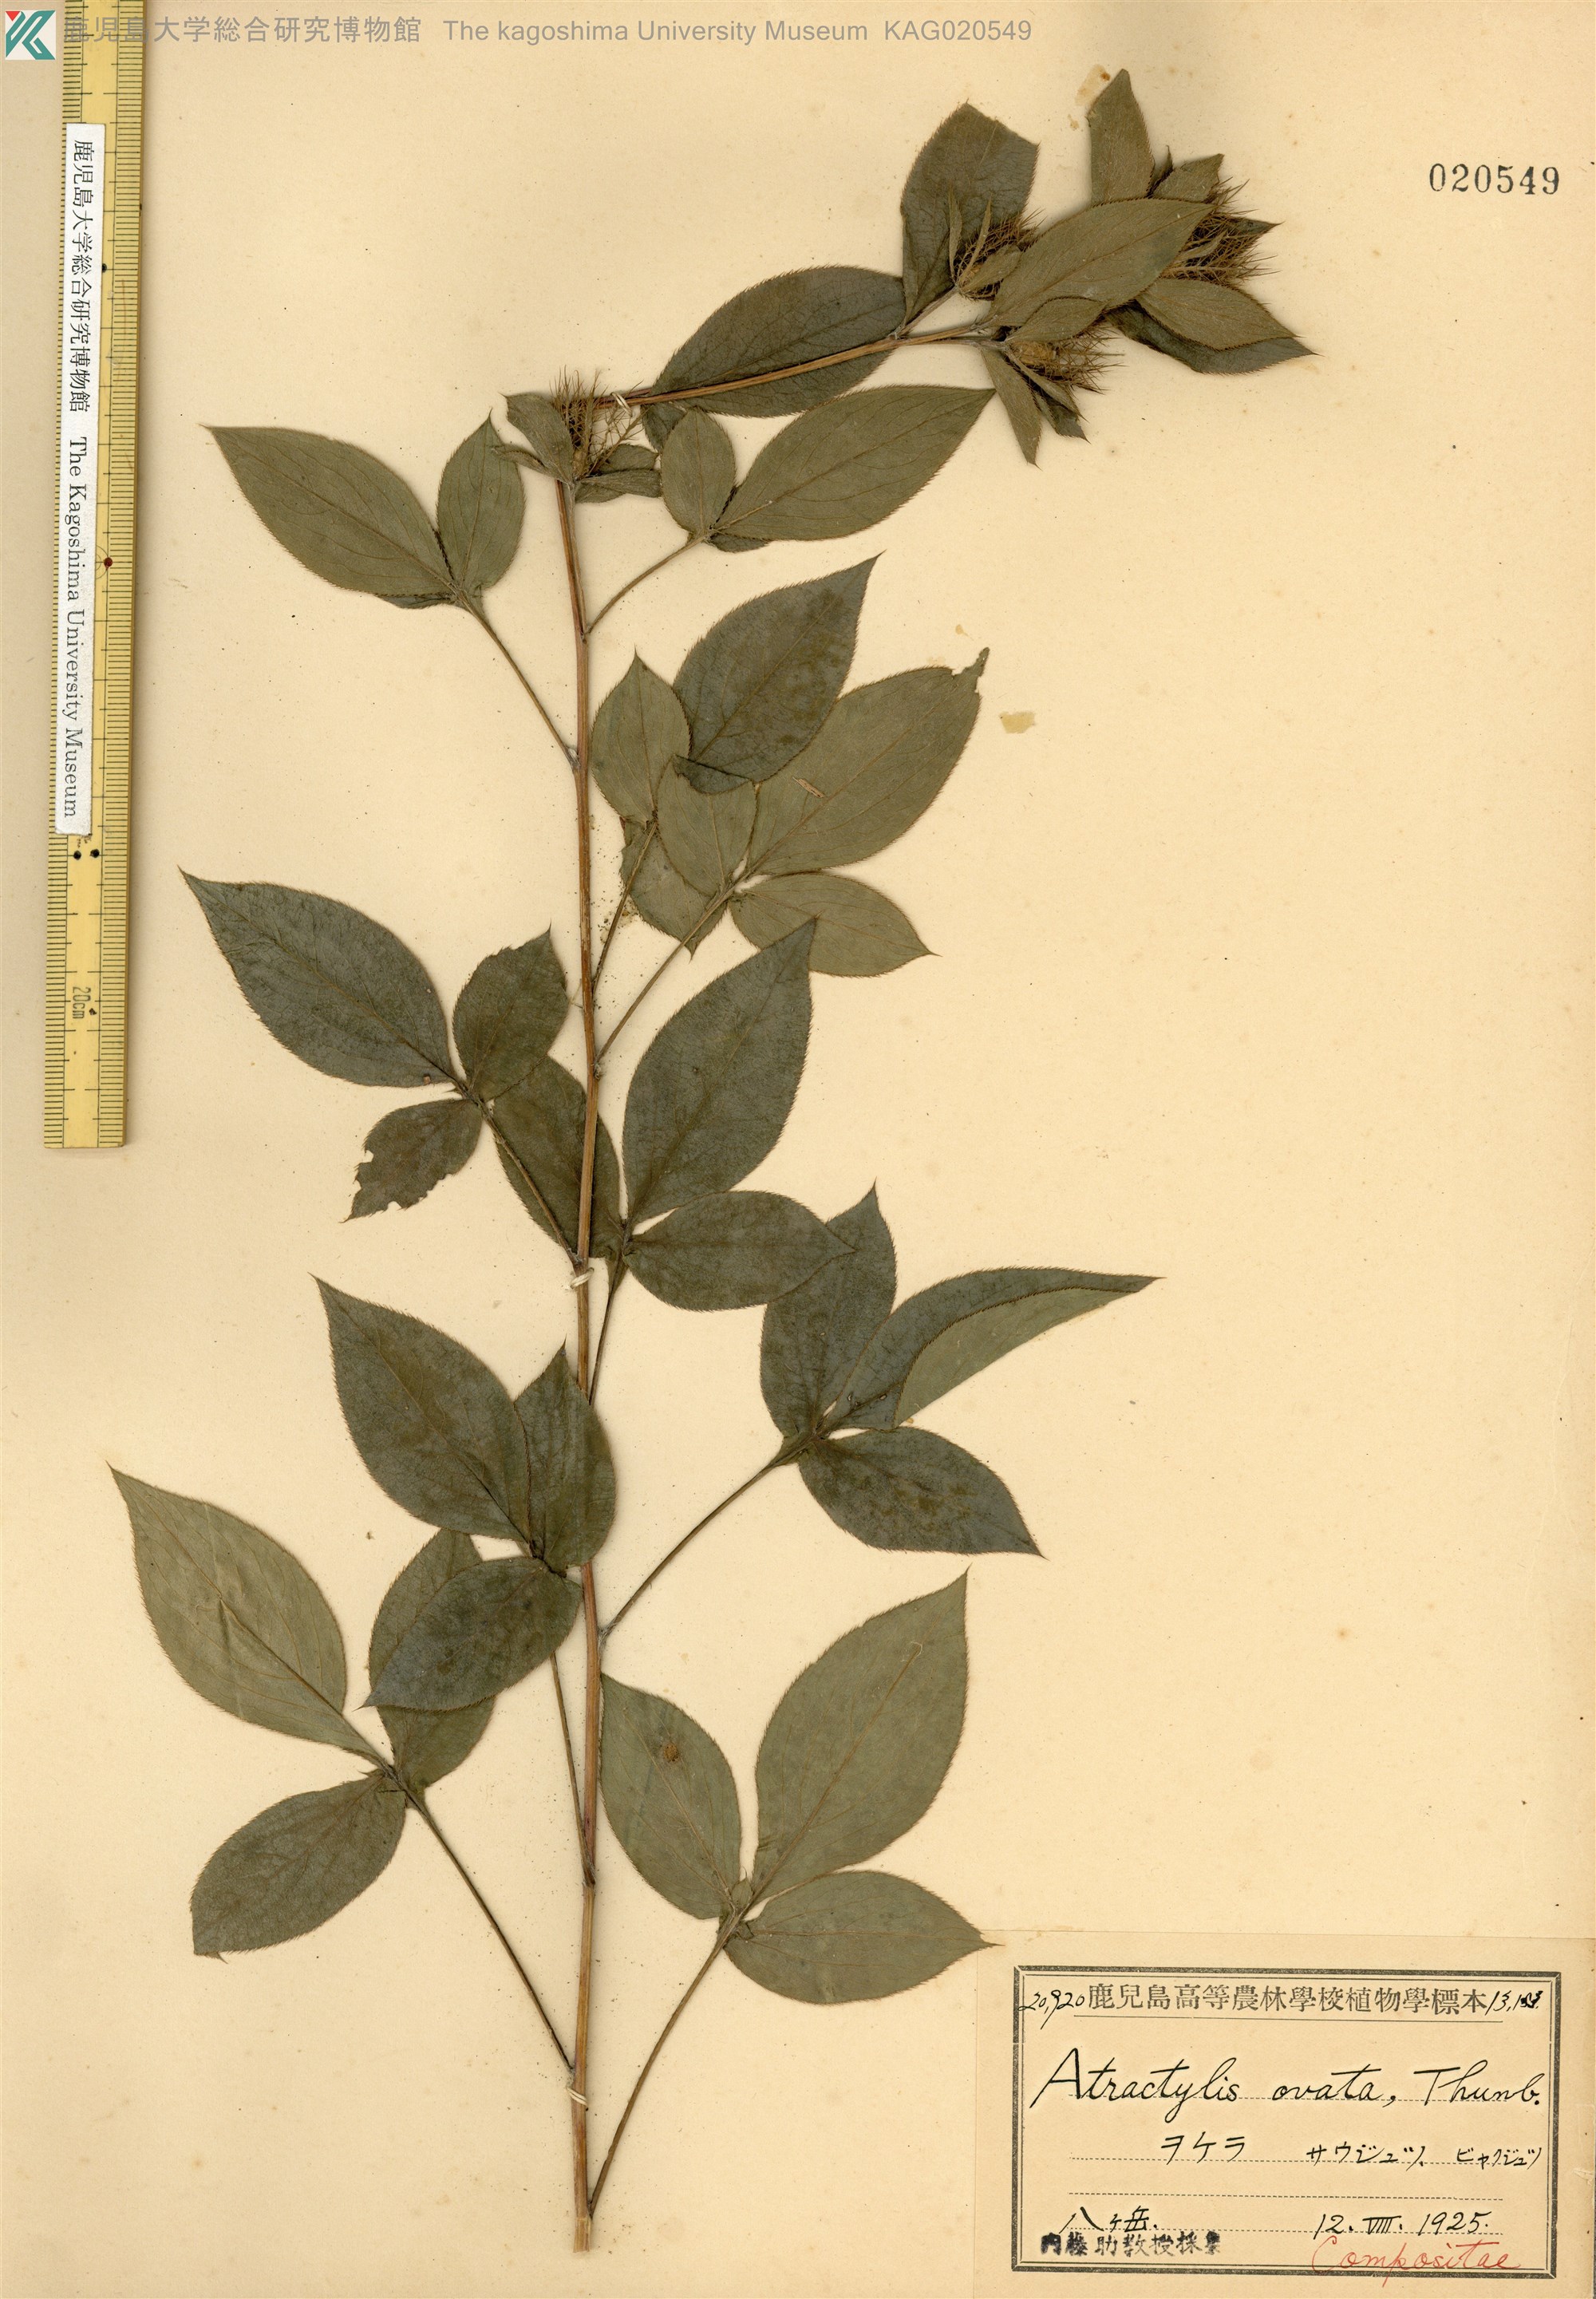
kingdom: Plantae
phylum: Tracheophyta
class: Magnoliopsida
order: Asterales
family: Asteraceae
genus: Atractylodes
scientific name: Atractylodes lancea
